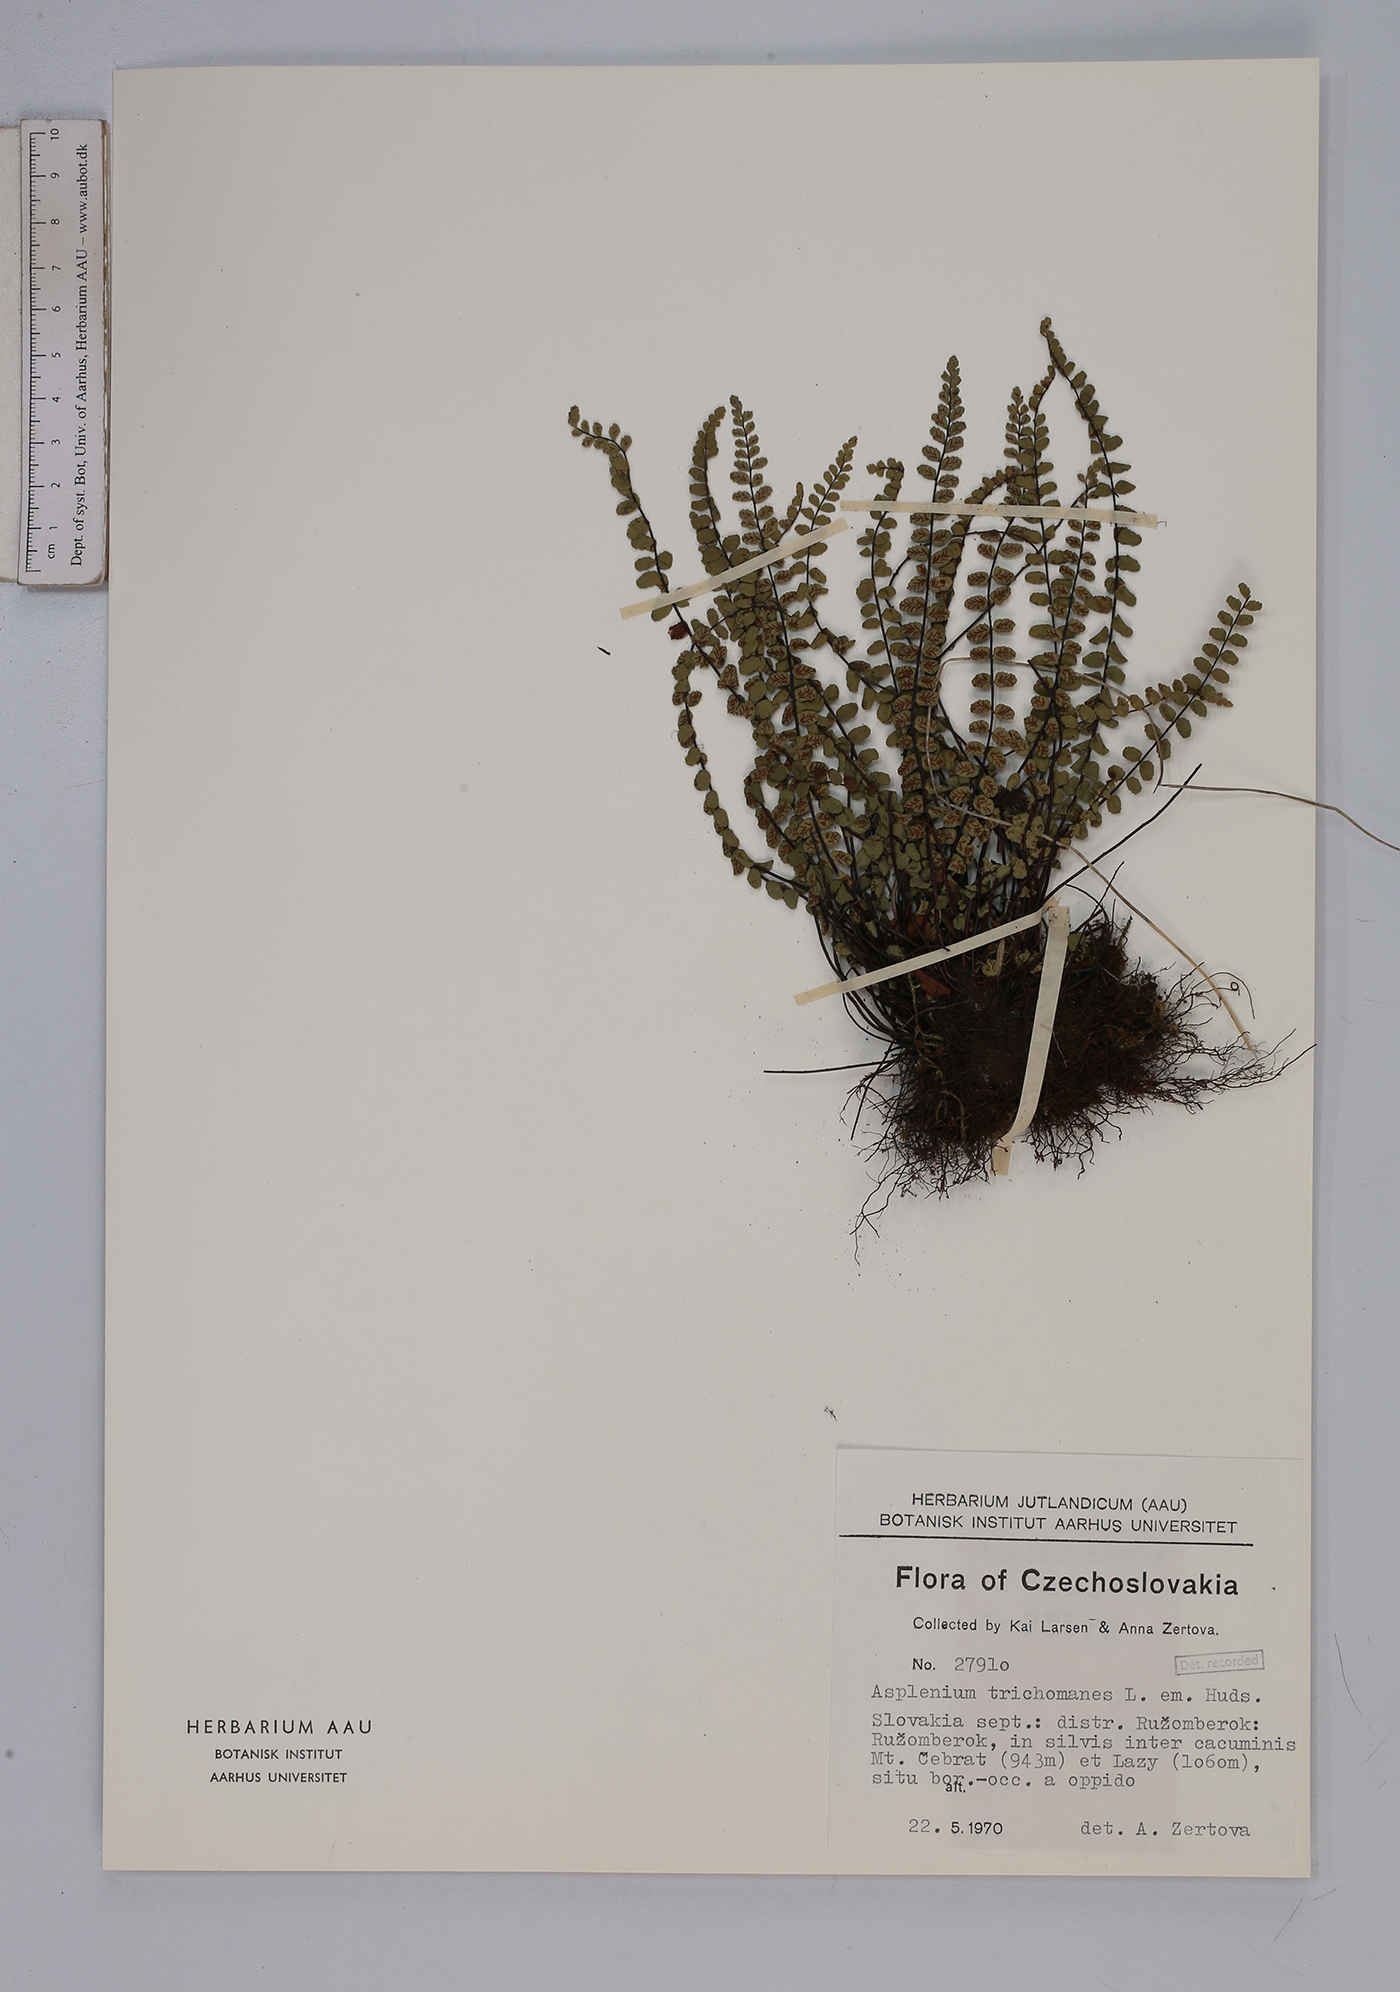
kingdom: Plantae
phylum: Tracheophyta
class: Polypodiopsida
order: Polypodiales
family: Aspleniaceae
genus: Asplenium
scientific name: Asplenium trichomanes
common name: Maidenhair spleenwort
